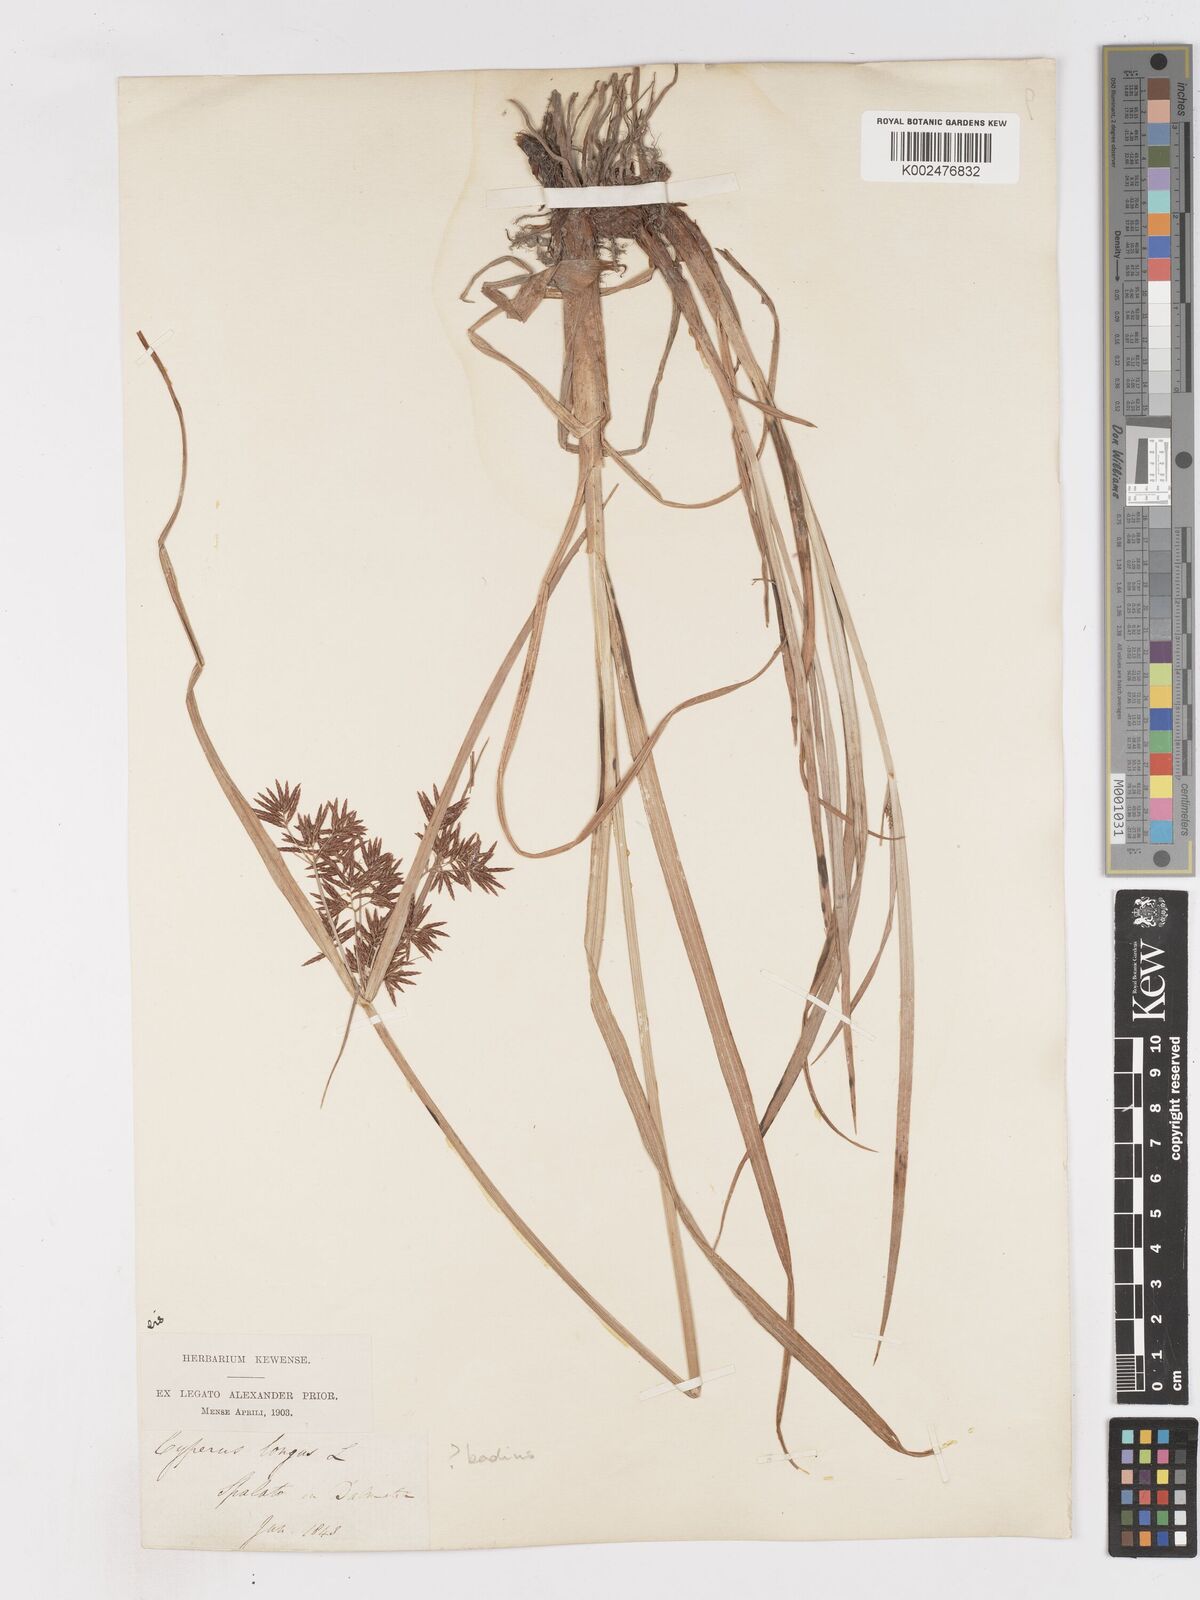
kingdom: Plantae
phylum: Tracheophyta
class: Liliopsida
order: Poales
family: Cyperaceae
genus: Cyperus
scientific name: Cyperus longus
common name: Galingale
